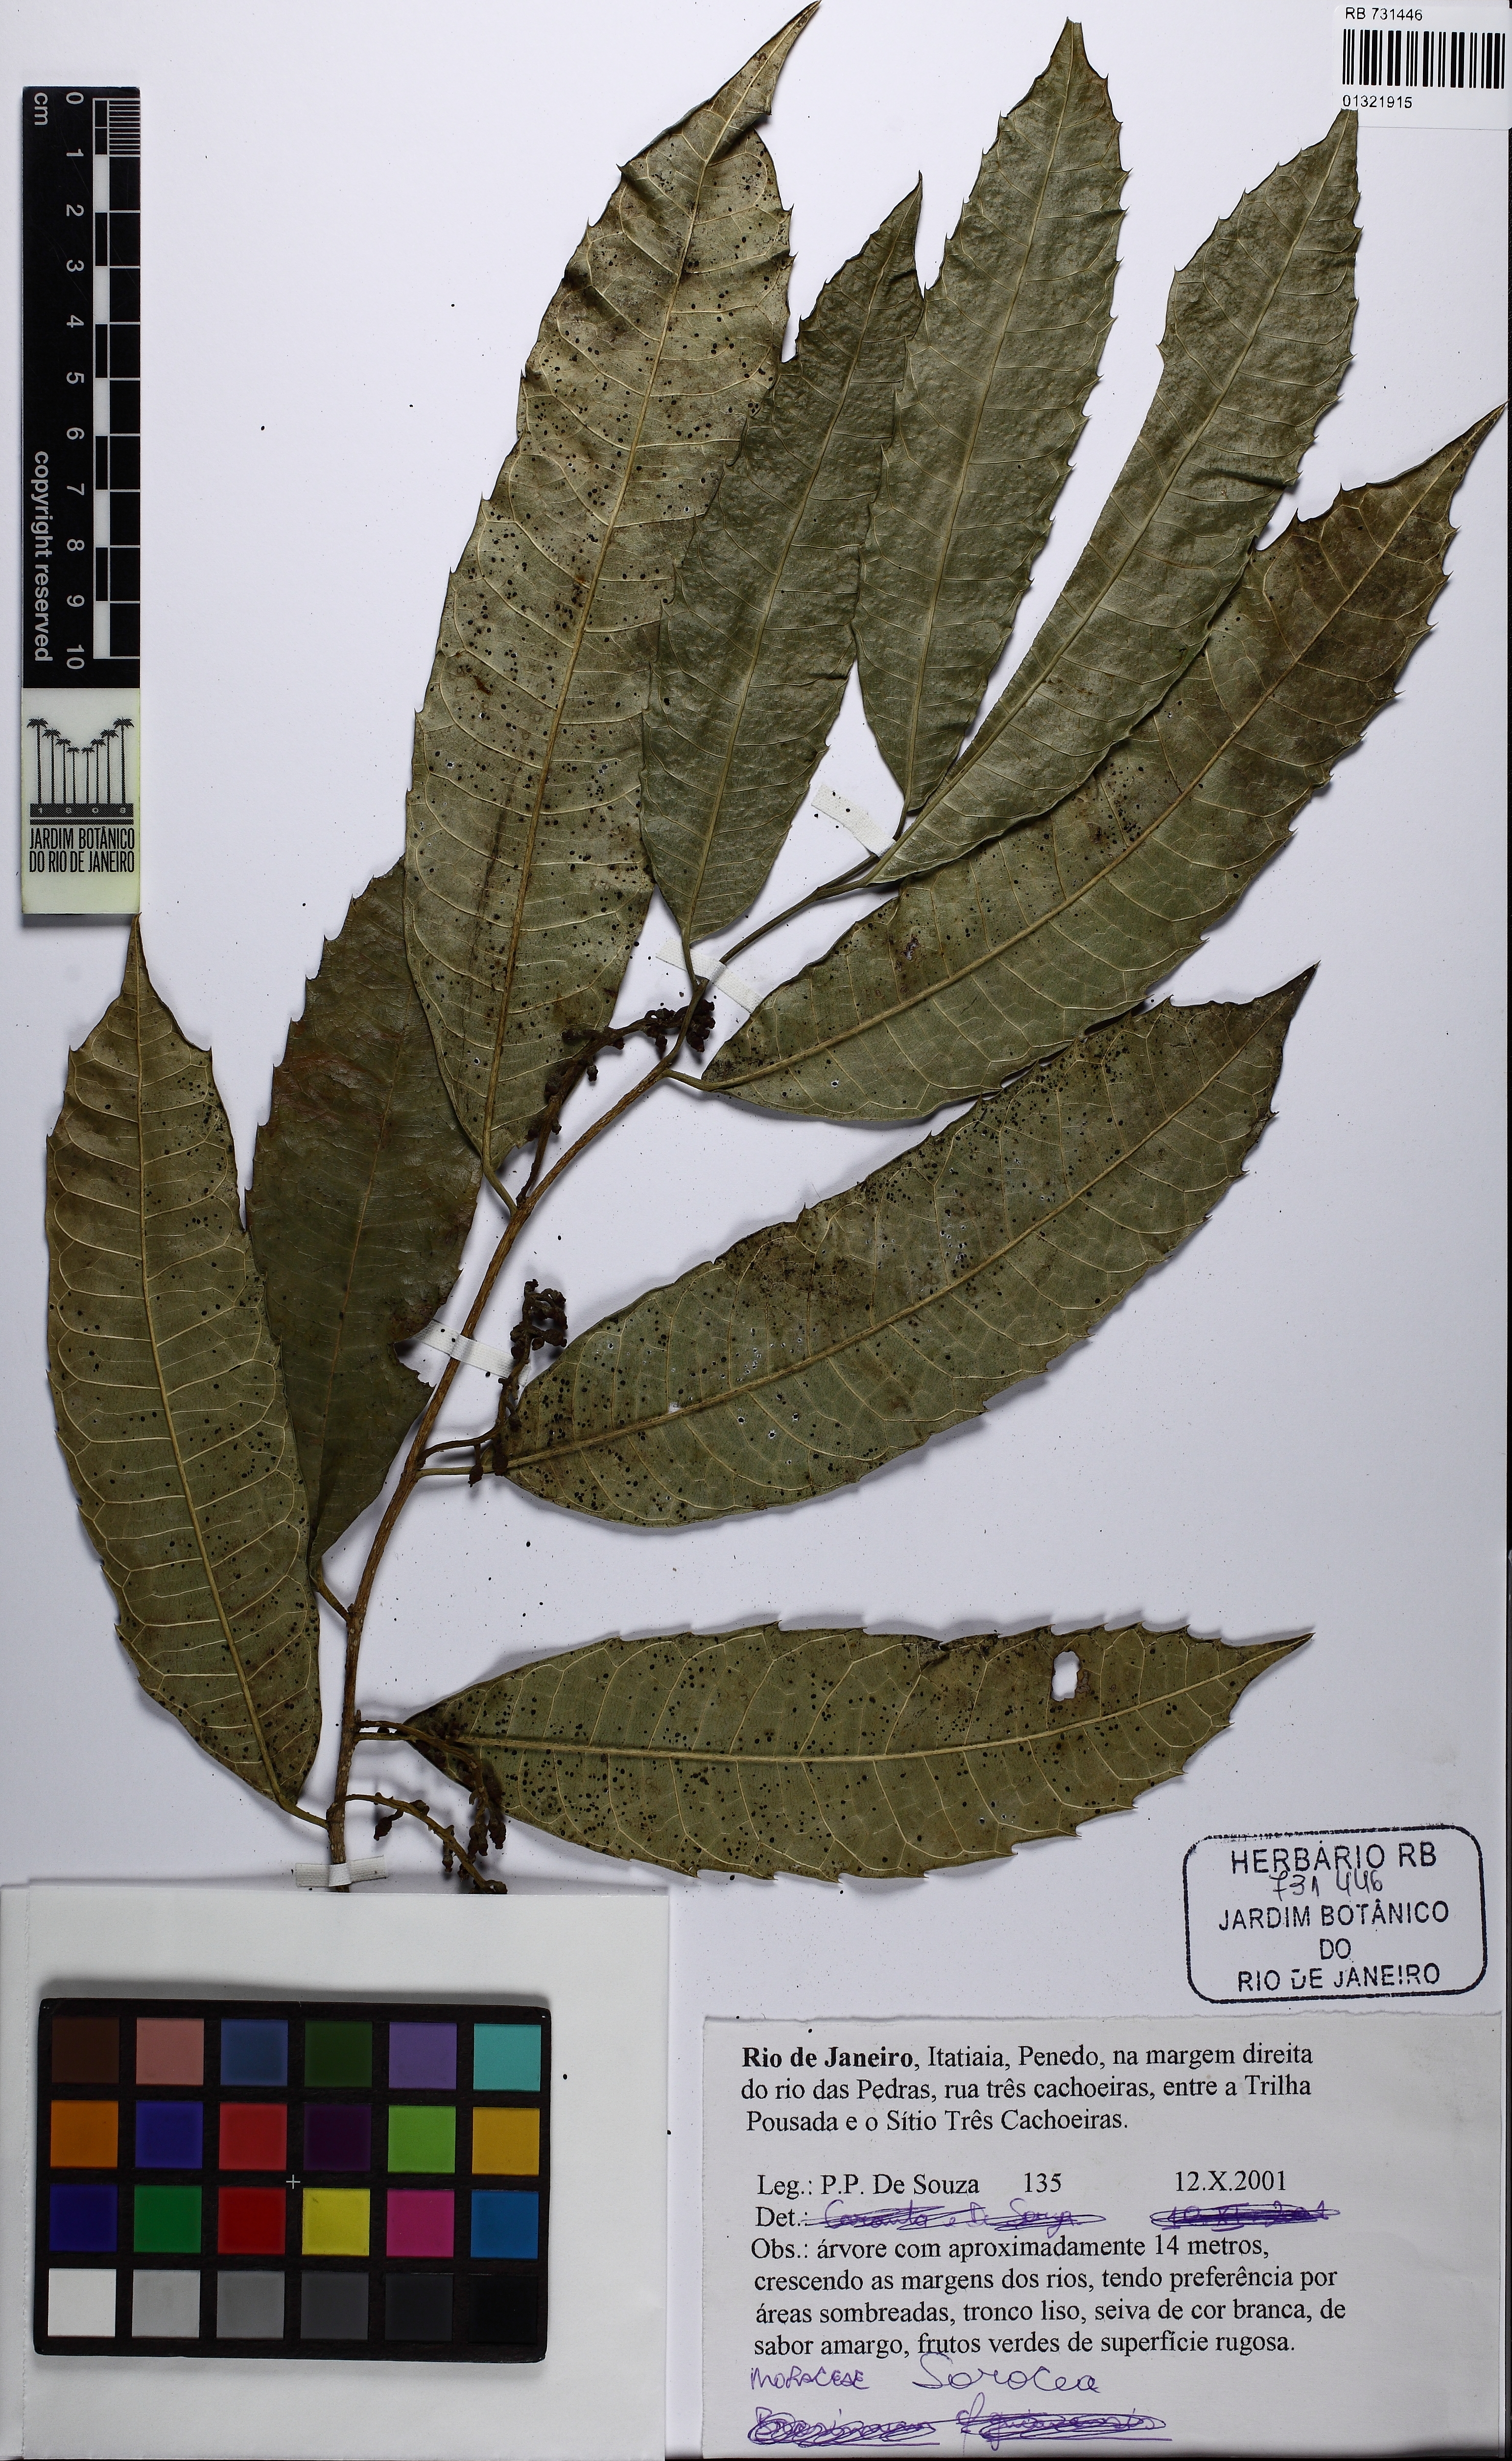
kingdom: Plantae
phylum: Tracheophyta
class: Magnoliopsida
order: Rosales
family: Moraceae
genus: Sorocea
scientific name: Sorocea
